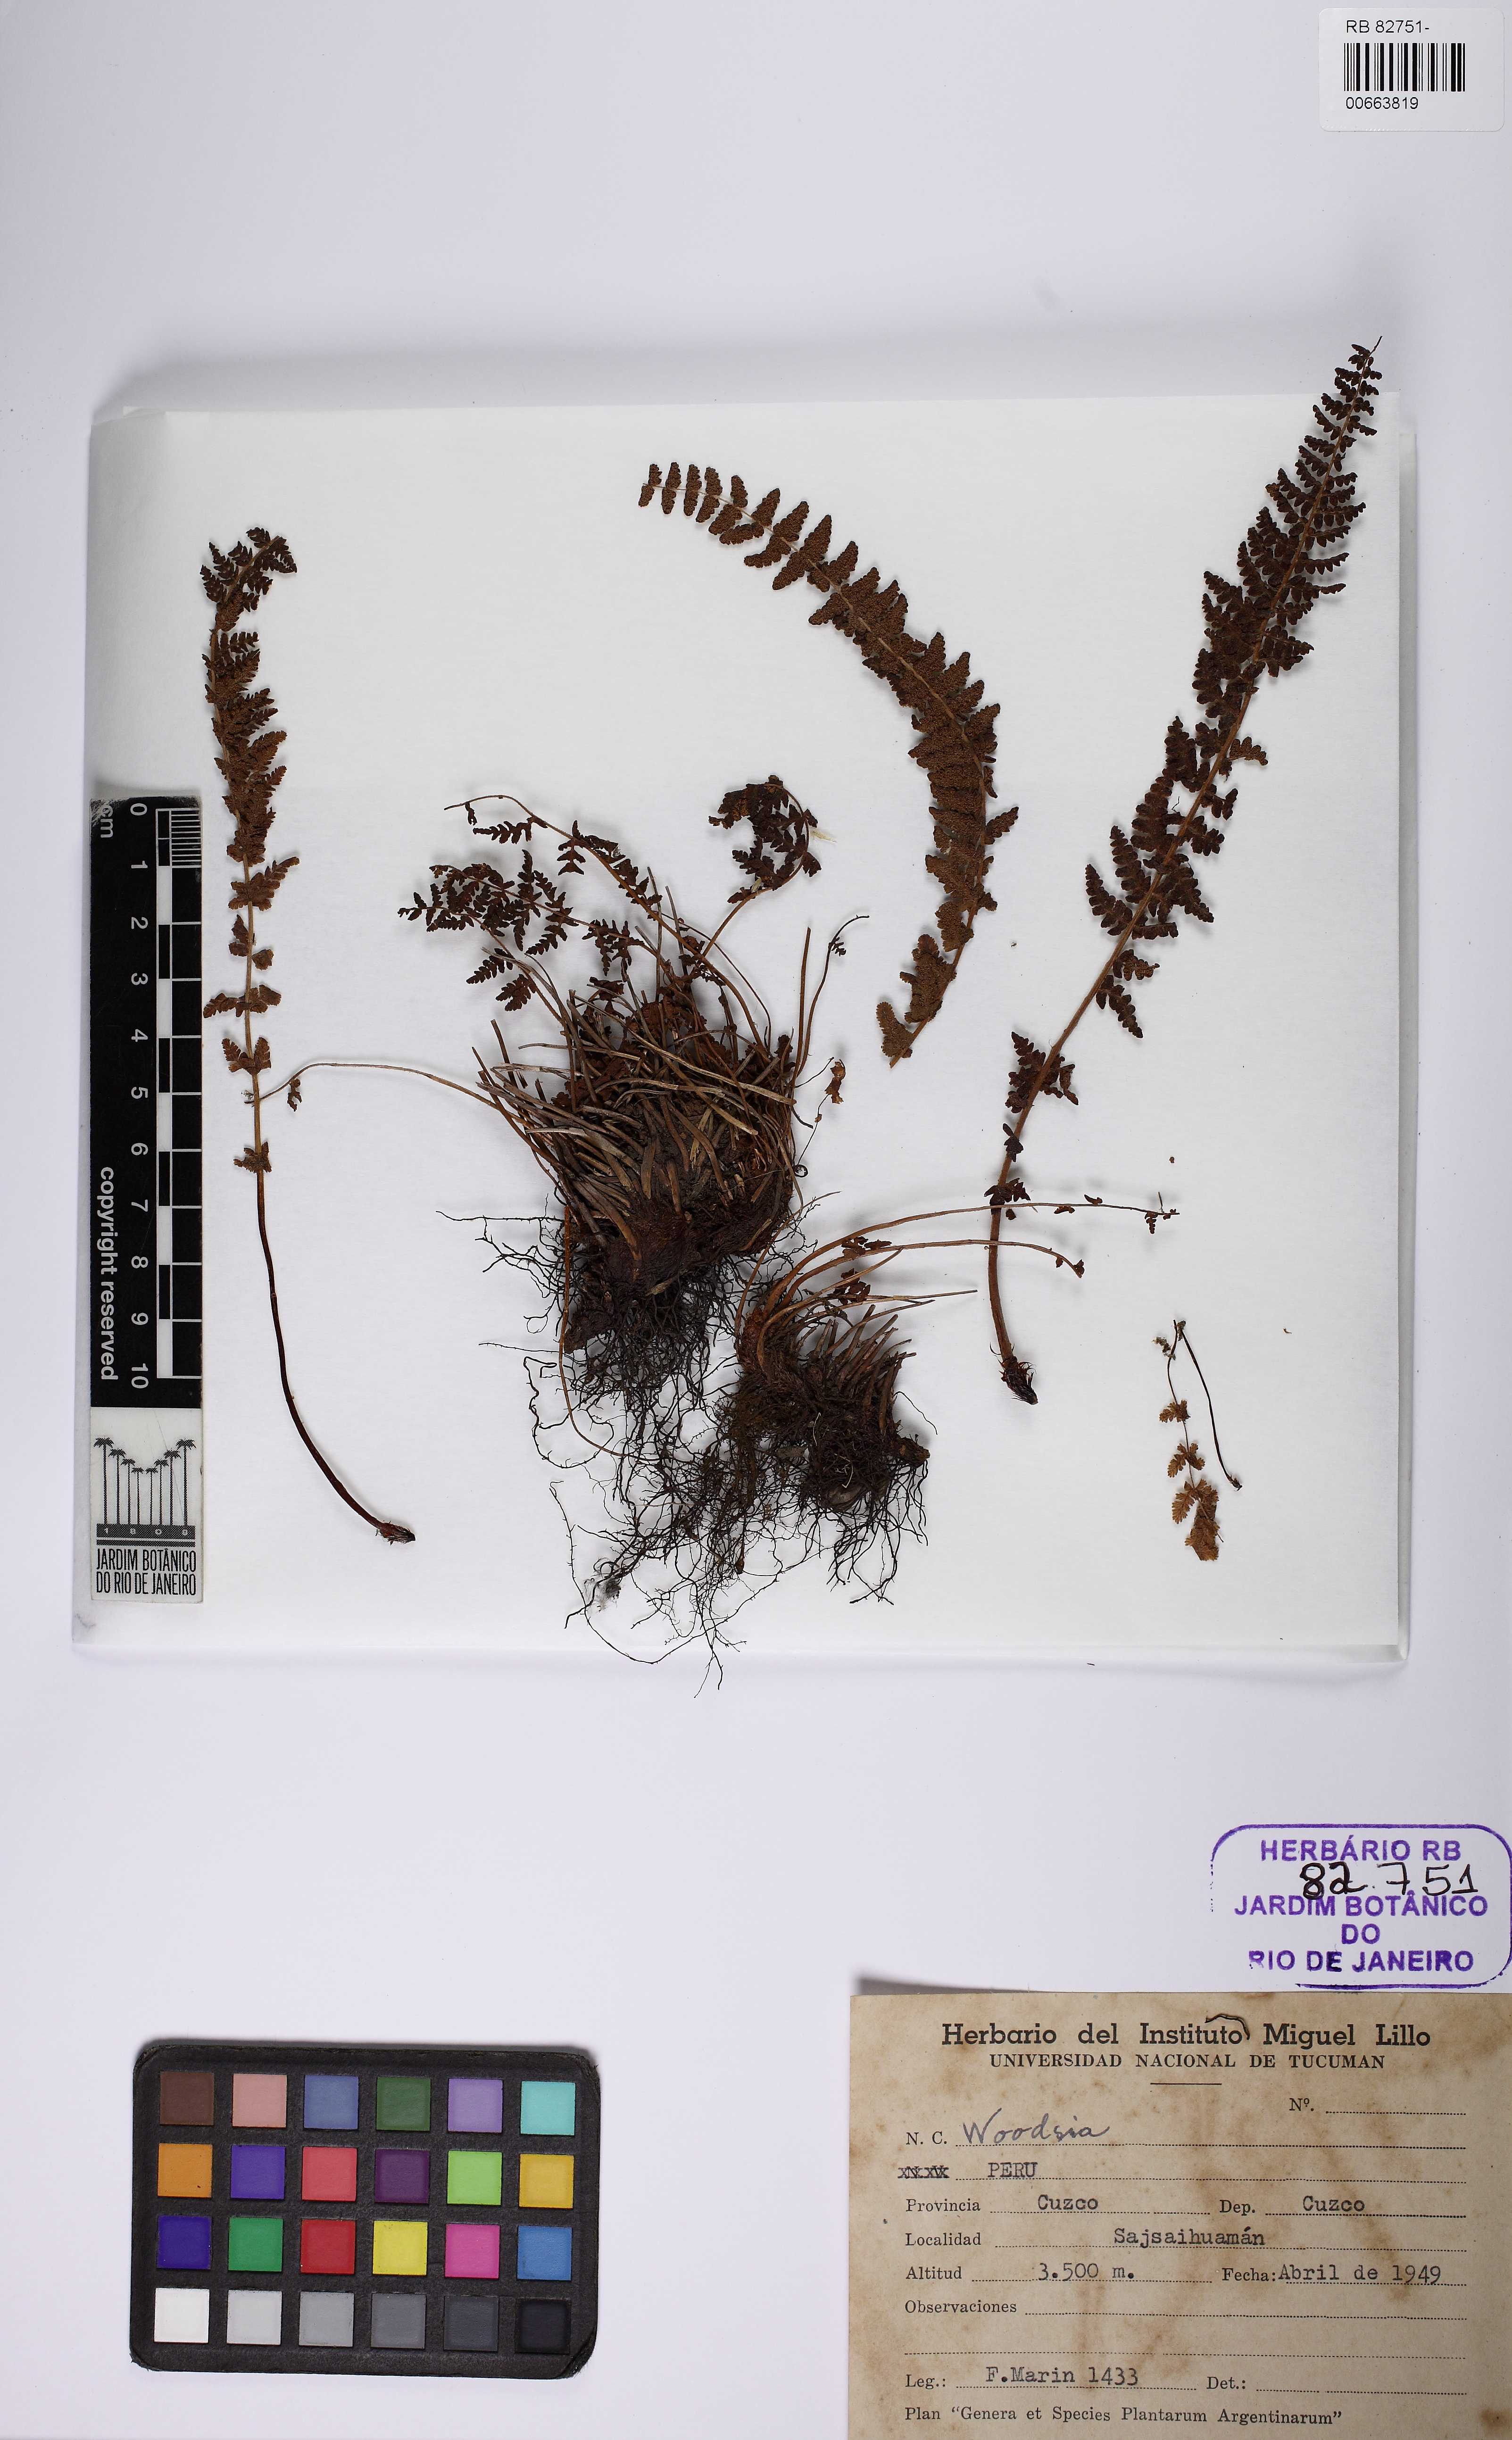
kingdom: Plantae
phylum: Tracheophyta
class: Polypodiopsida
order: Polypodiales
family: Woodsiaceae
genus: Physematium
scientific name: Physematium montevidense
